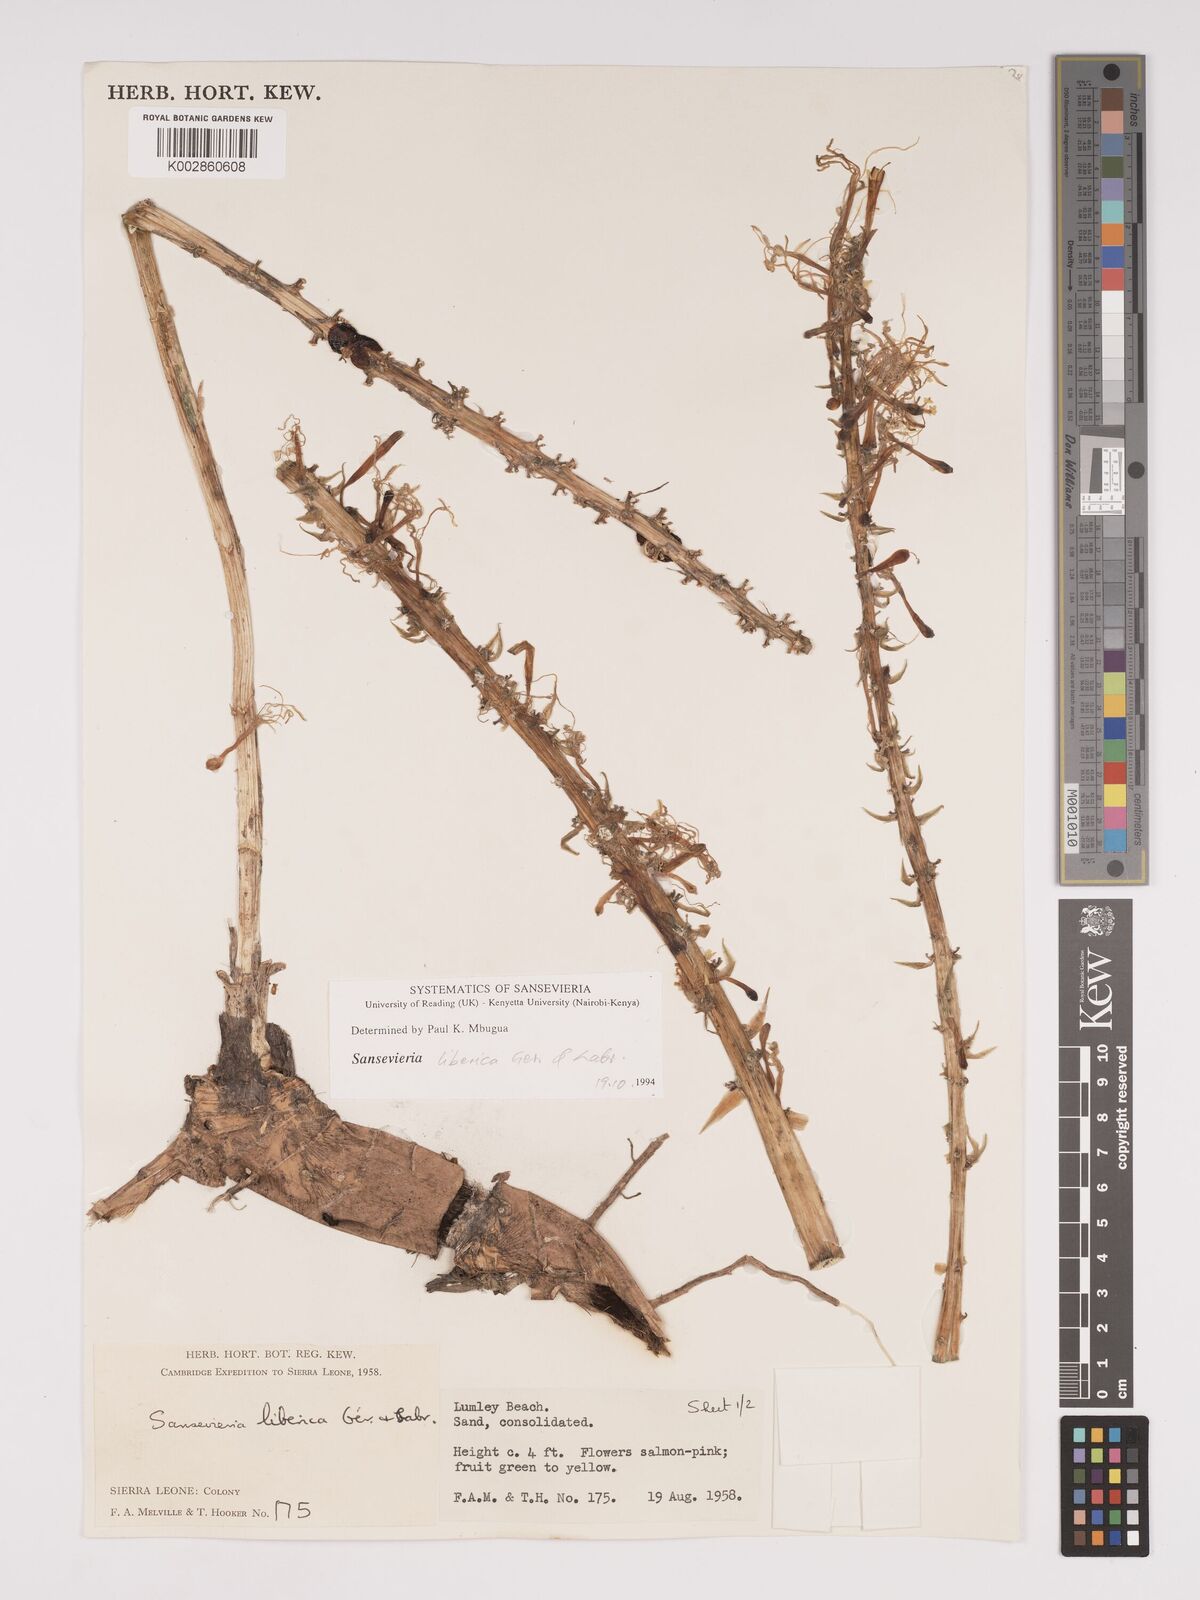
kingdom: Plantae
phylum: Tracheophyta
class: Liliopsida
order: Asparagales
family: Asparagaceae
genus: Dracaena
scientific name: Dracaena liberica
